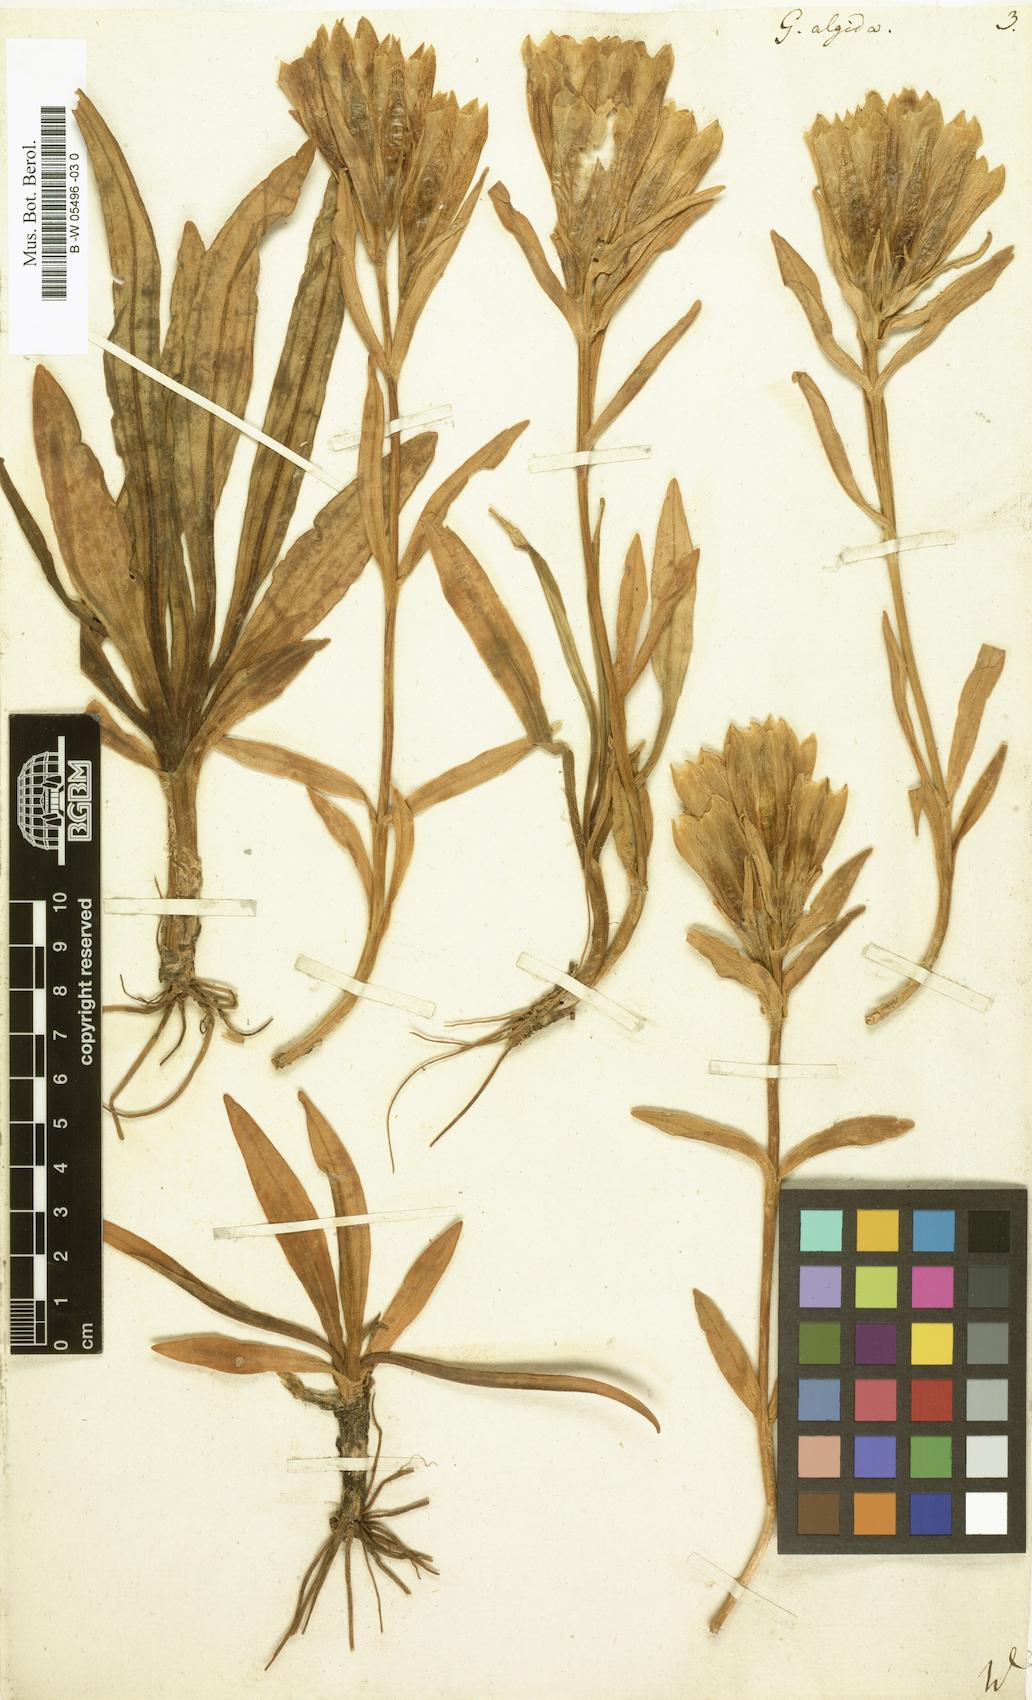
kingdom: Plantae
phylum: Tracheophyta
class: Magnoliopsida
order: Gentianales
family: Gentianaceae
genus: Gentiana
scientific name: Gentiana algida
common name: Arctic gentian
